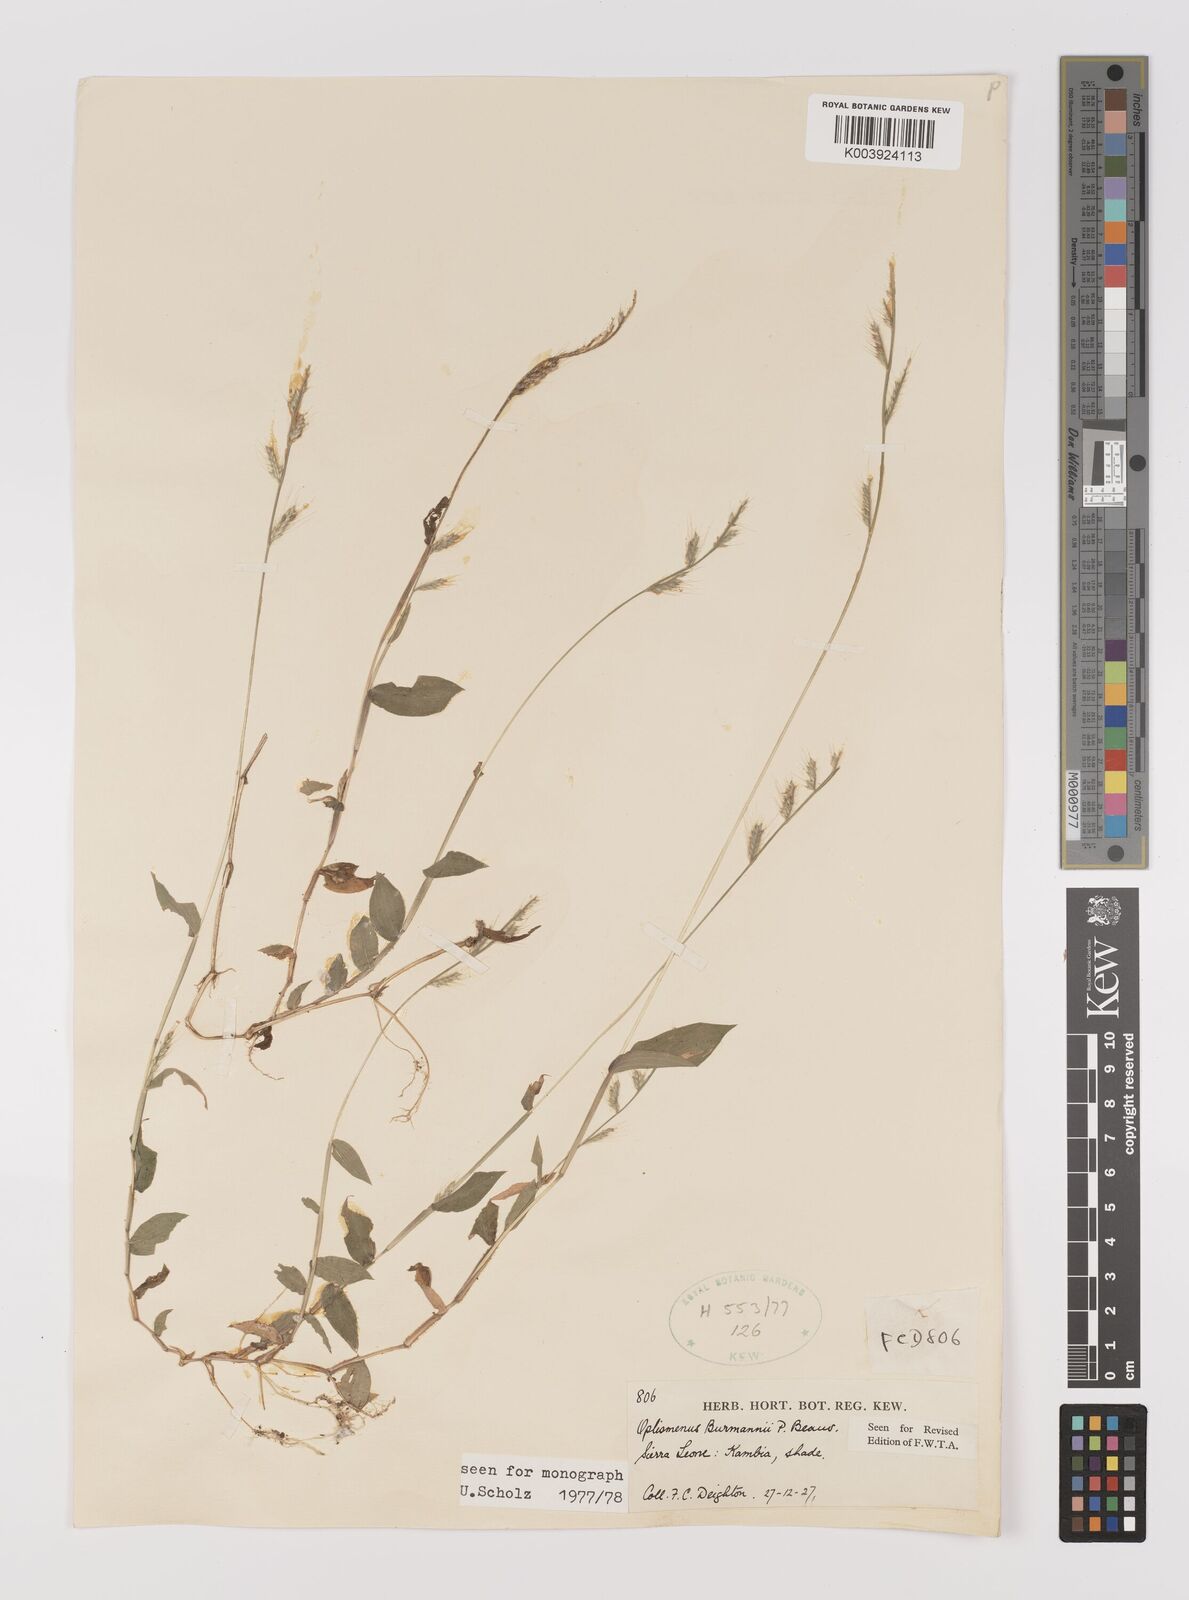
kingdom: Plantae
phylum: Tracheophyta
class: Liliopsida
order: Poales
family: Poaceae
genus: Oplismenus
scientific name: Oplismenus burmanni
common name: Burmann's basketgrass
